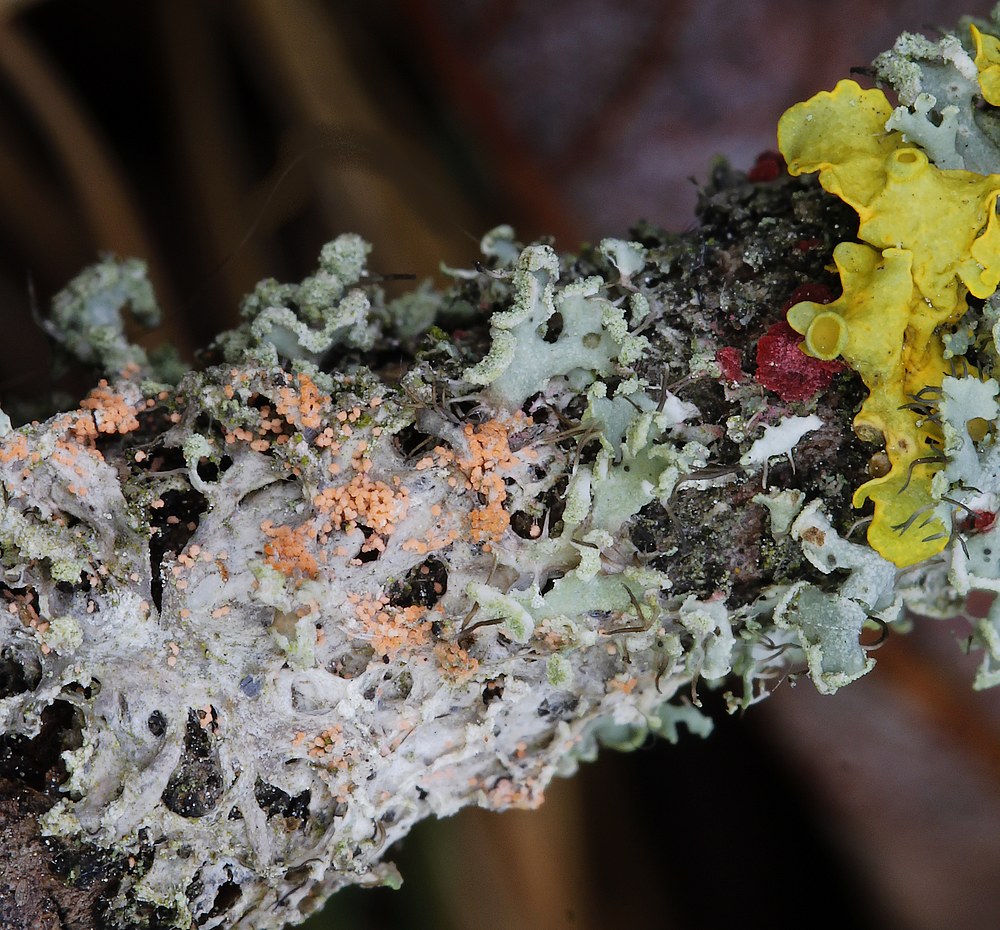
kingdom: Fungi
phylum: Ascomycota
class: Sordariomycetes
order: Hypocreales
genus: Illosporiopsis
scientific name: Illosporiopsis christiansenii
